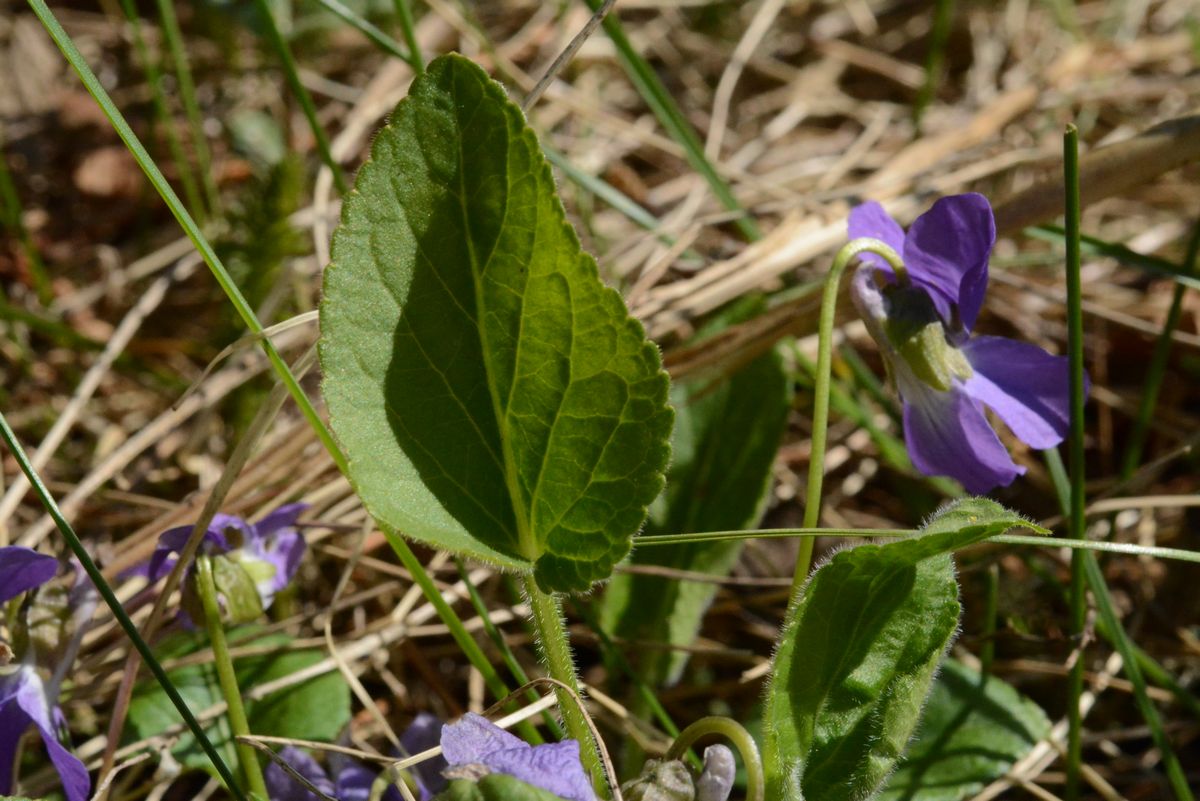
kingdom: Plantae
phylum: Tracheophyta
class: Magnoliopsida
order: Malpighiales
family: Violaceae
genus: Viola
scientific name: Viola collina
